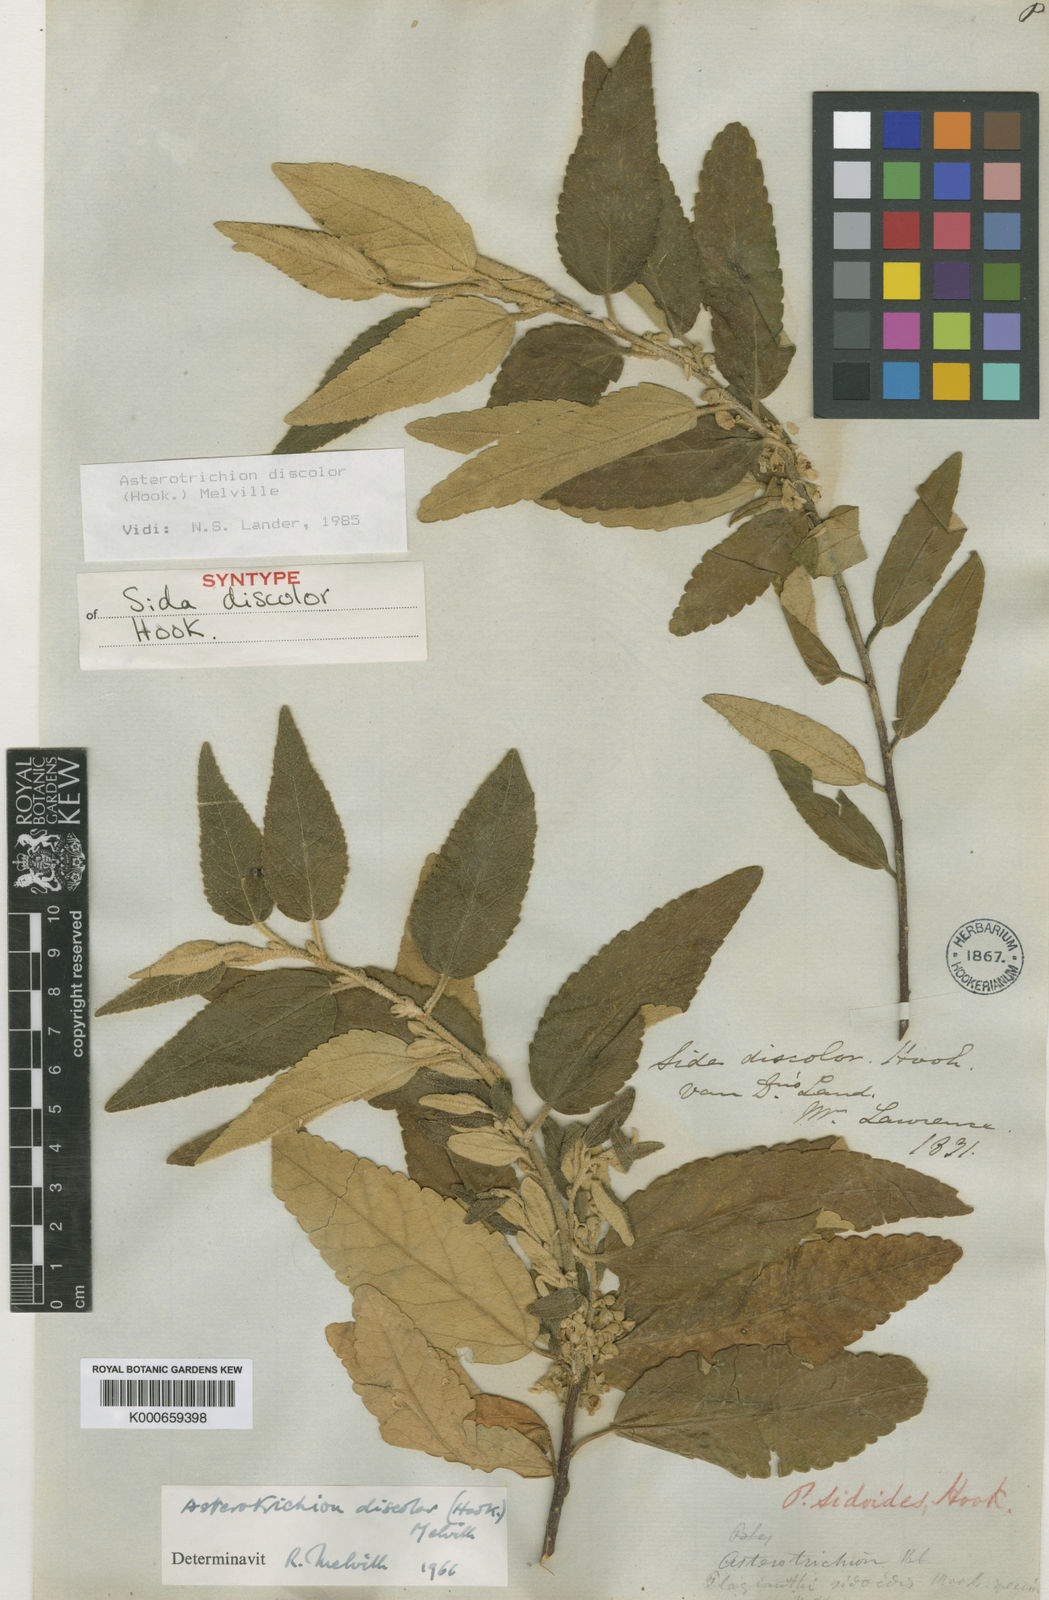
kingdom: Plantae
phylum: Tracheophyta
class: Magnoliopsida
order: Malvales
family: Malvaceae
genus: Asterotrichion
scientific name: Asterotrichion discolor
